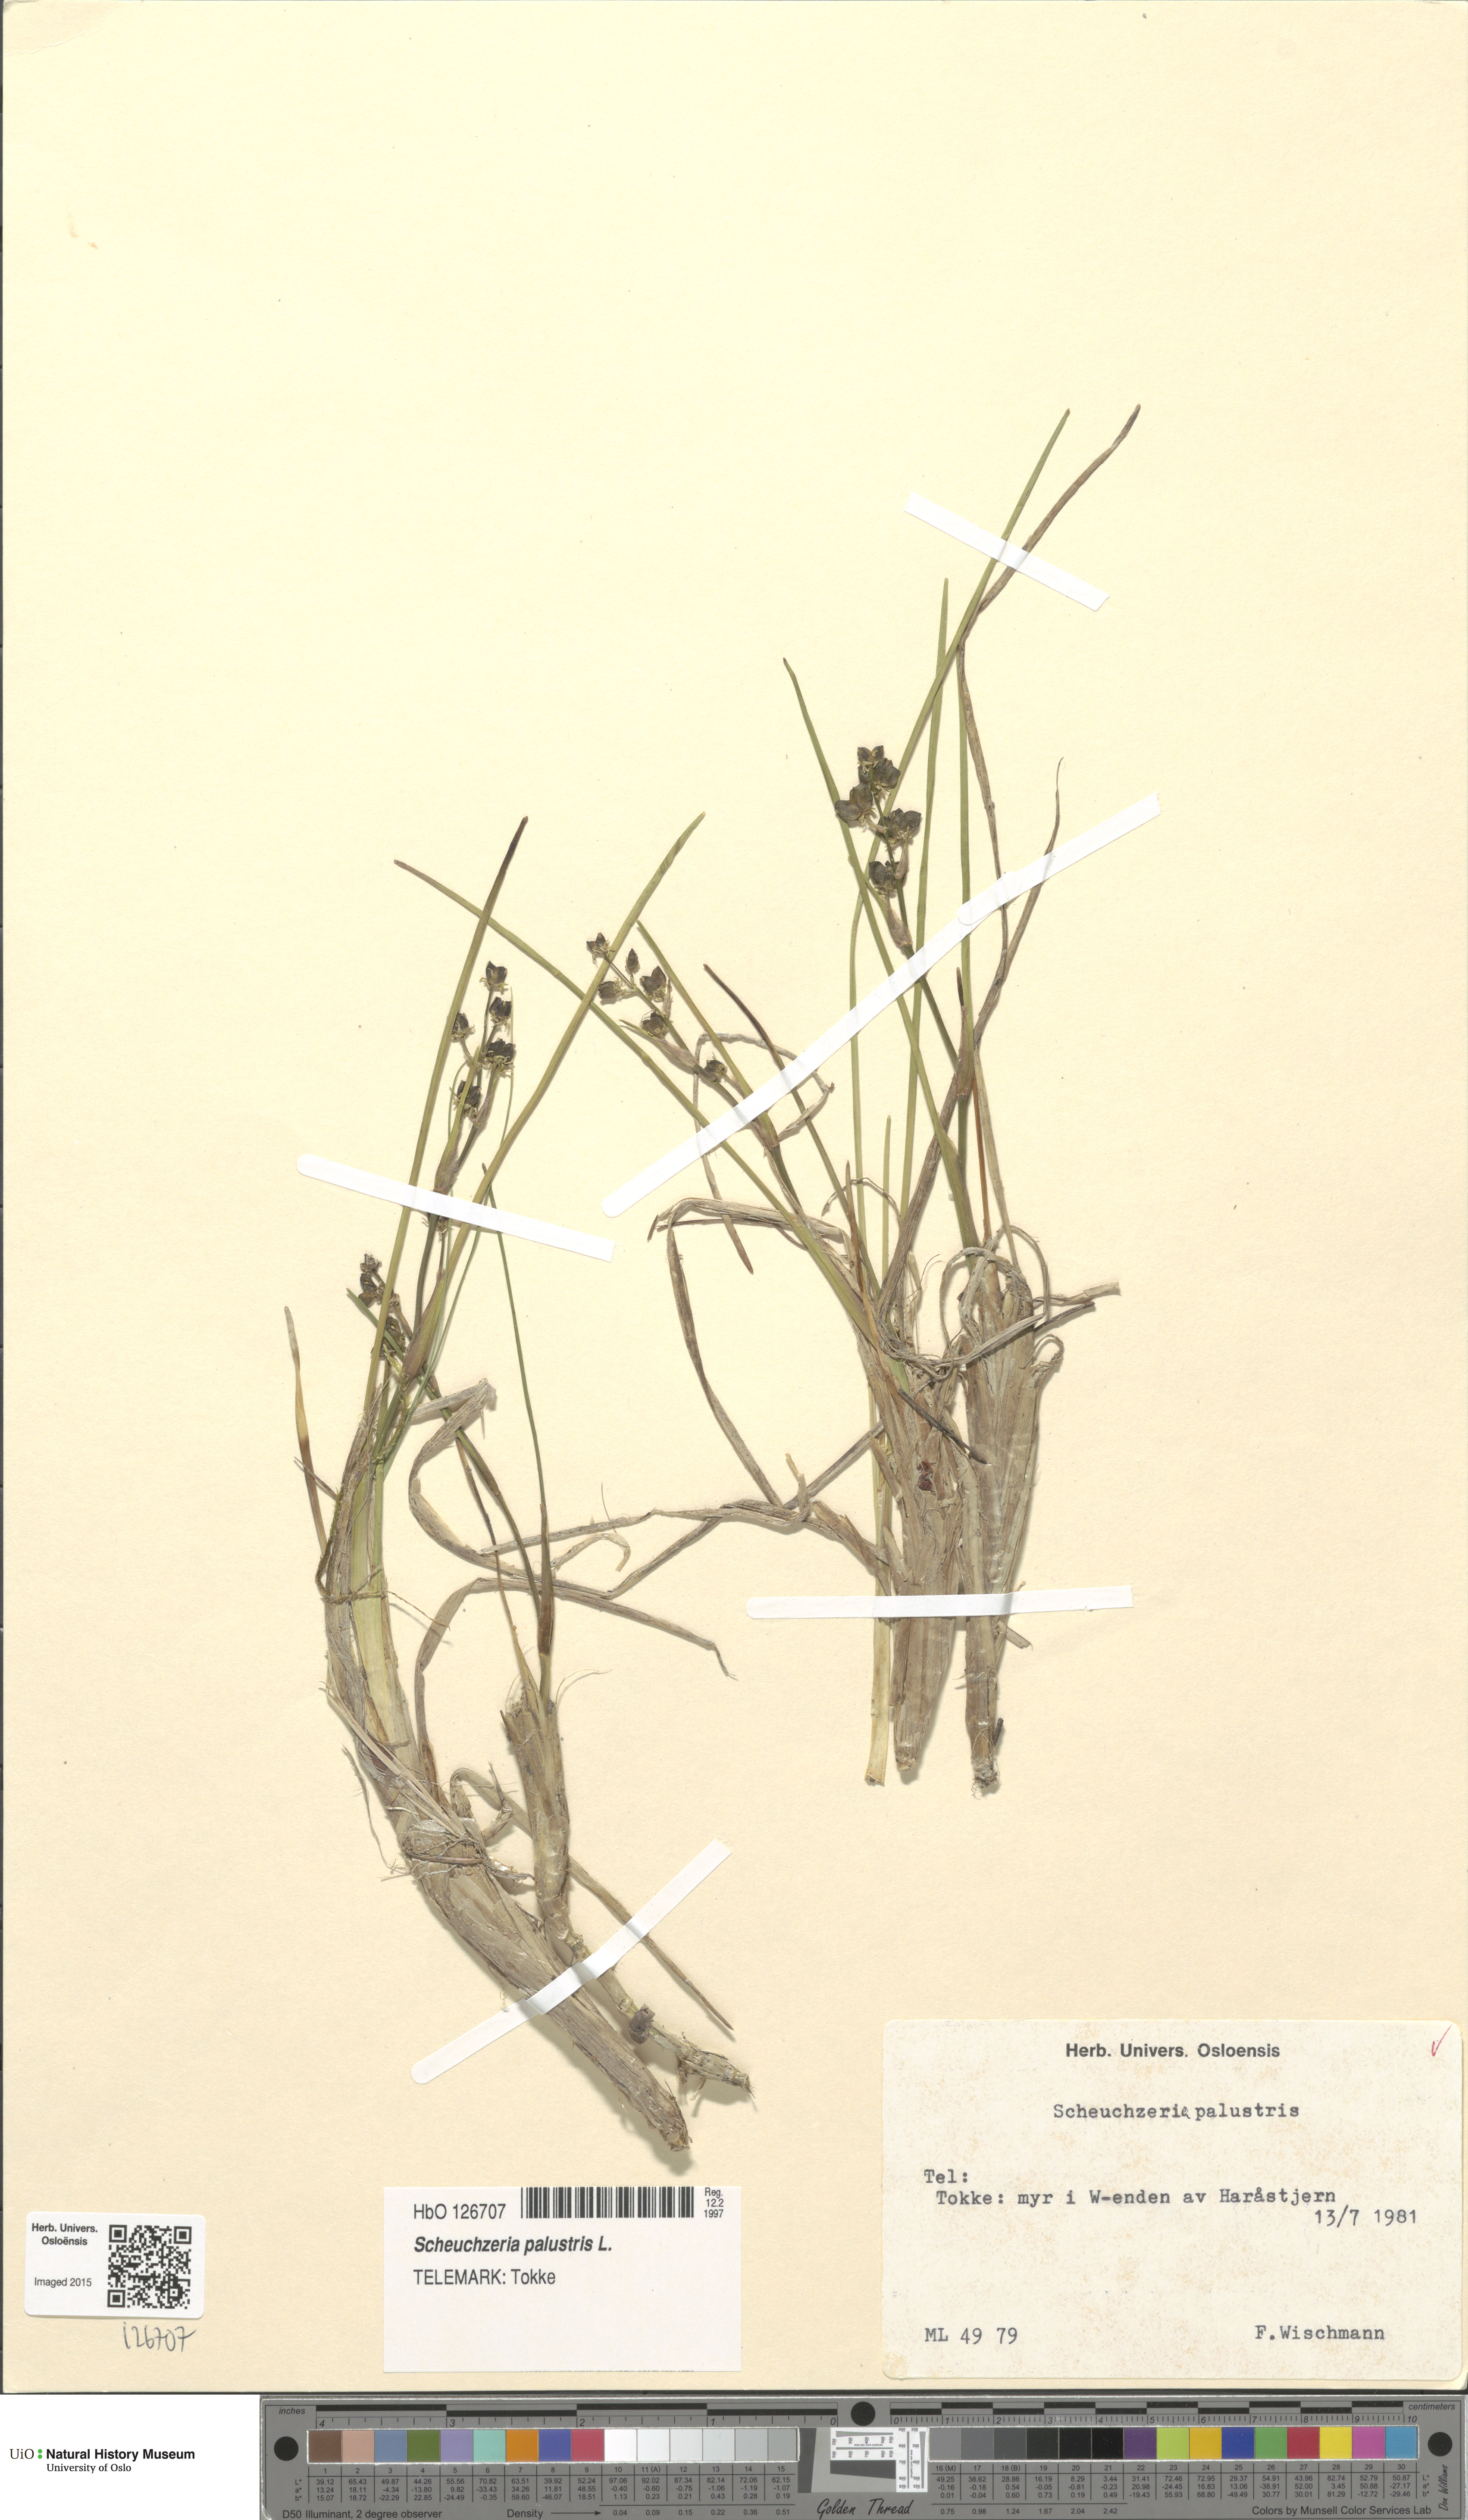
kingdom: Plantae
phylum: Tracheophyta
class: Liliopsida
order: Alismatales
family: Scheuchzeriaceae
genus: Scheuchzeria
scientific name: Scheuchzeria palustris
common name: Rannoch-rush
